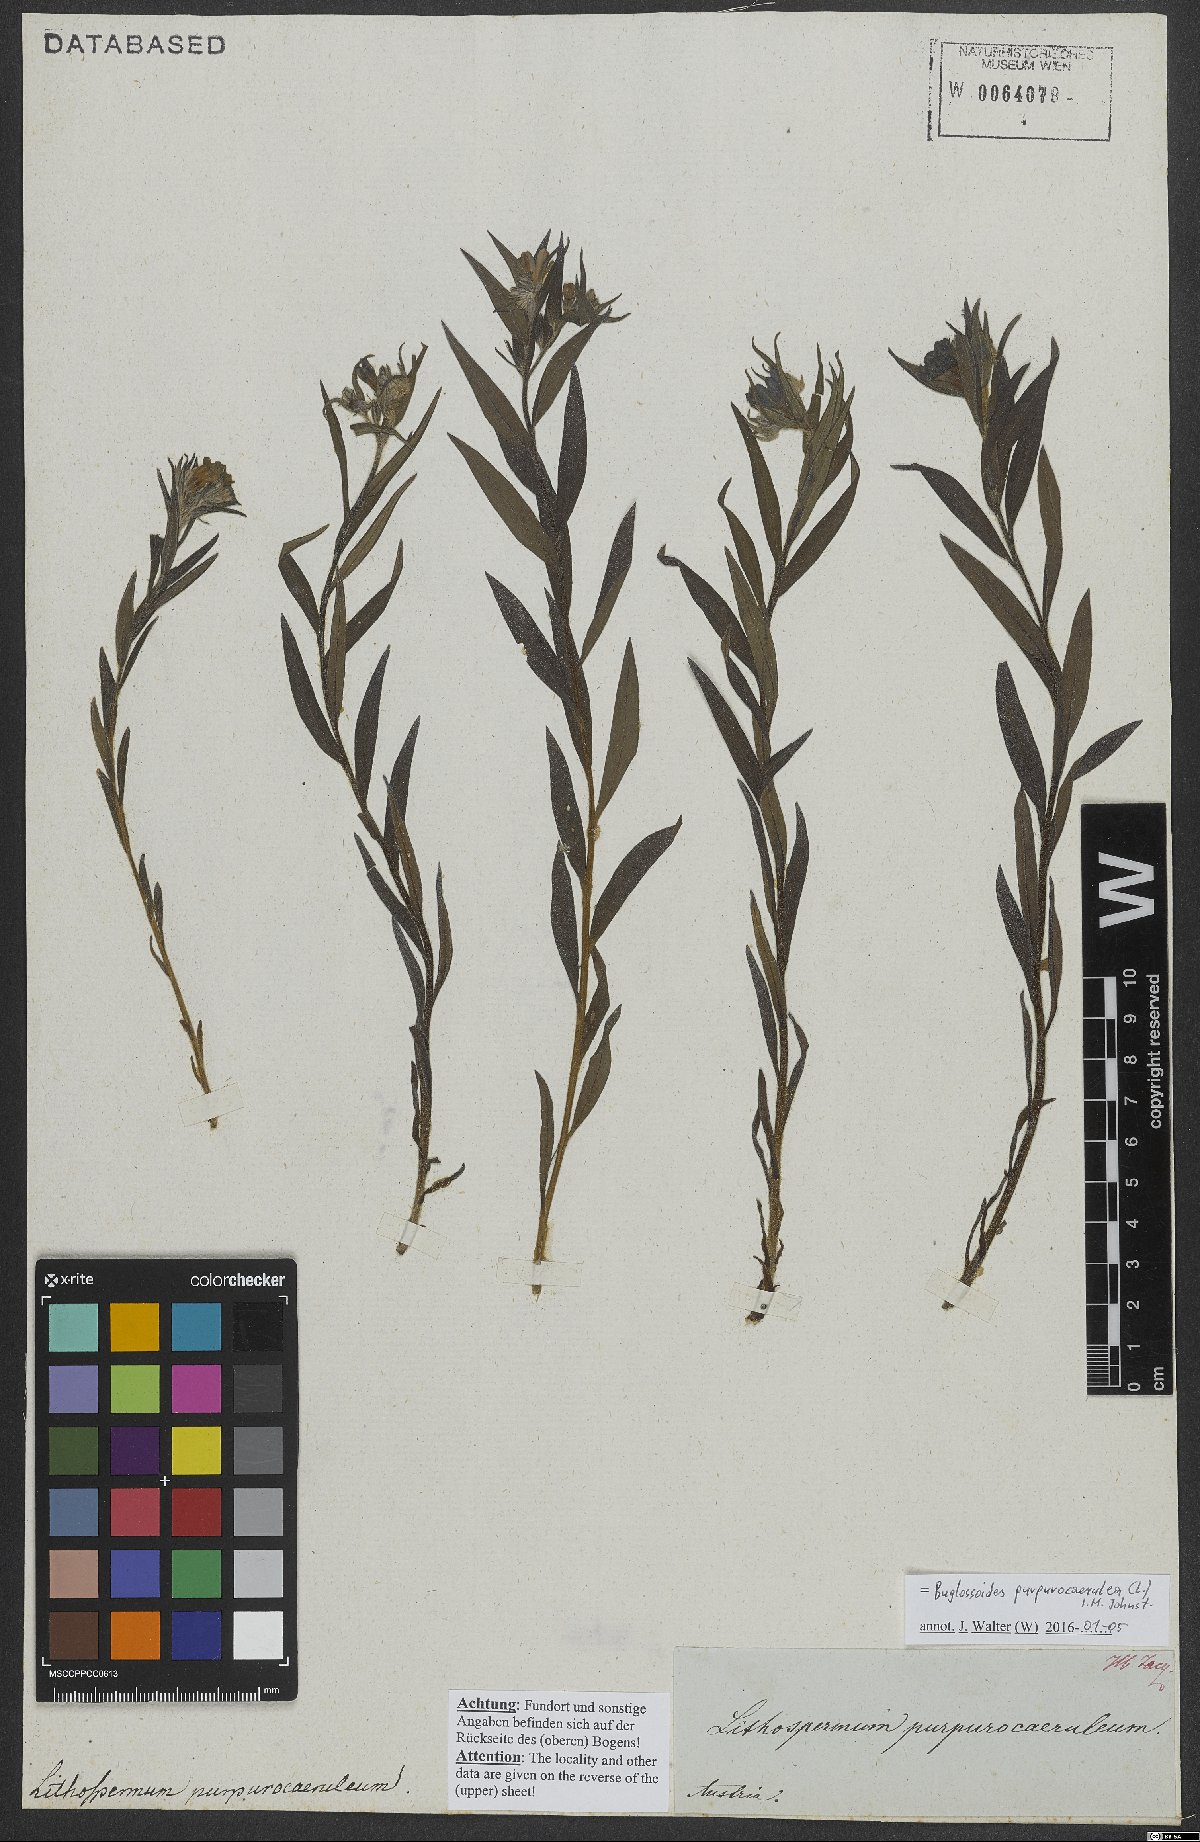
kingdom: Plantae
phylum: Tracheophyta
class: Magnoliopsida
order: Boraginales
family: Boraginaceae
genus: Aegonychon
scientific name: Aegonychon purpurocaeruleum
